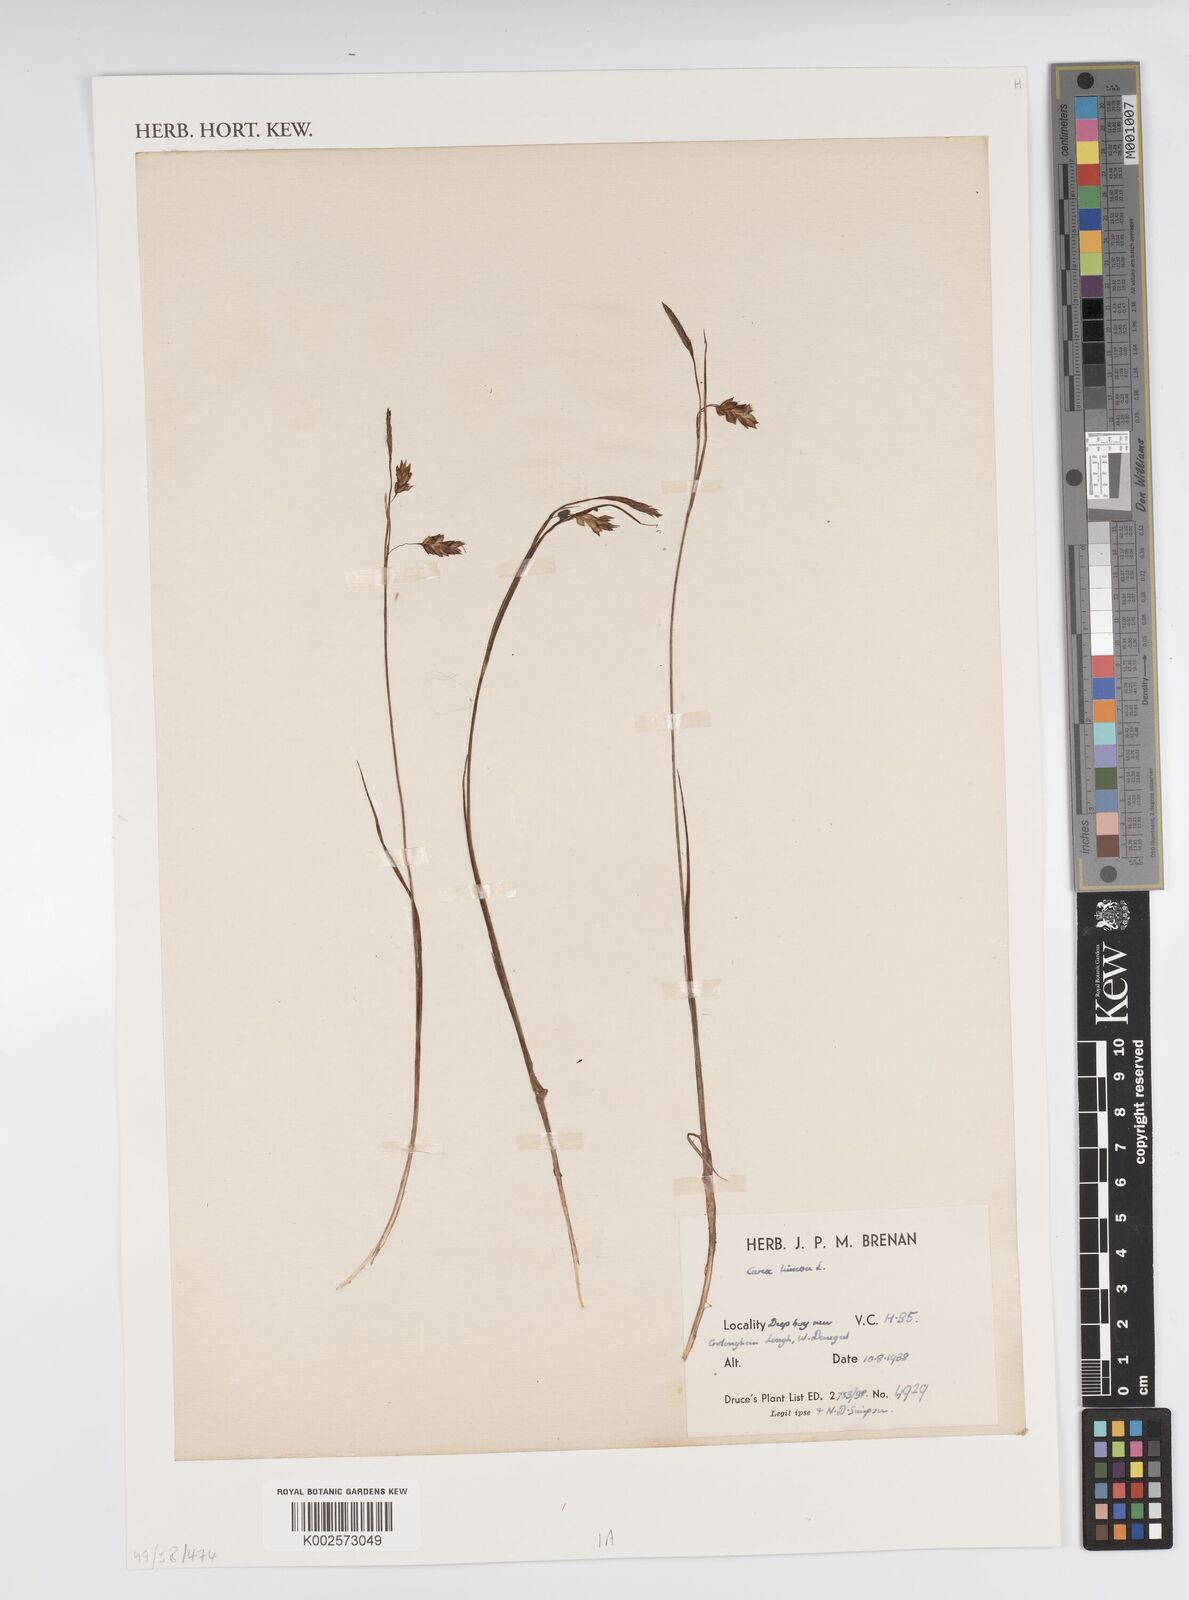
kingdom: Plantae
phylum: Tracheophyta
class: Liliopsida
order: Poales
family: Cyperaceae
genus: Carex
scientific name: Carex limosa
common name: Bog sedge
